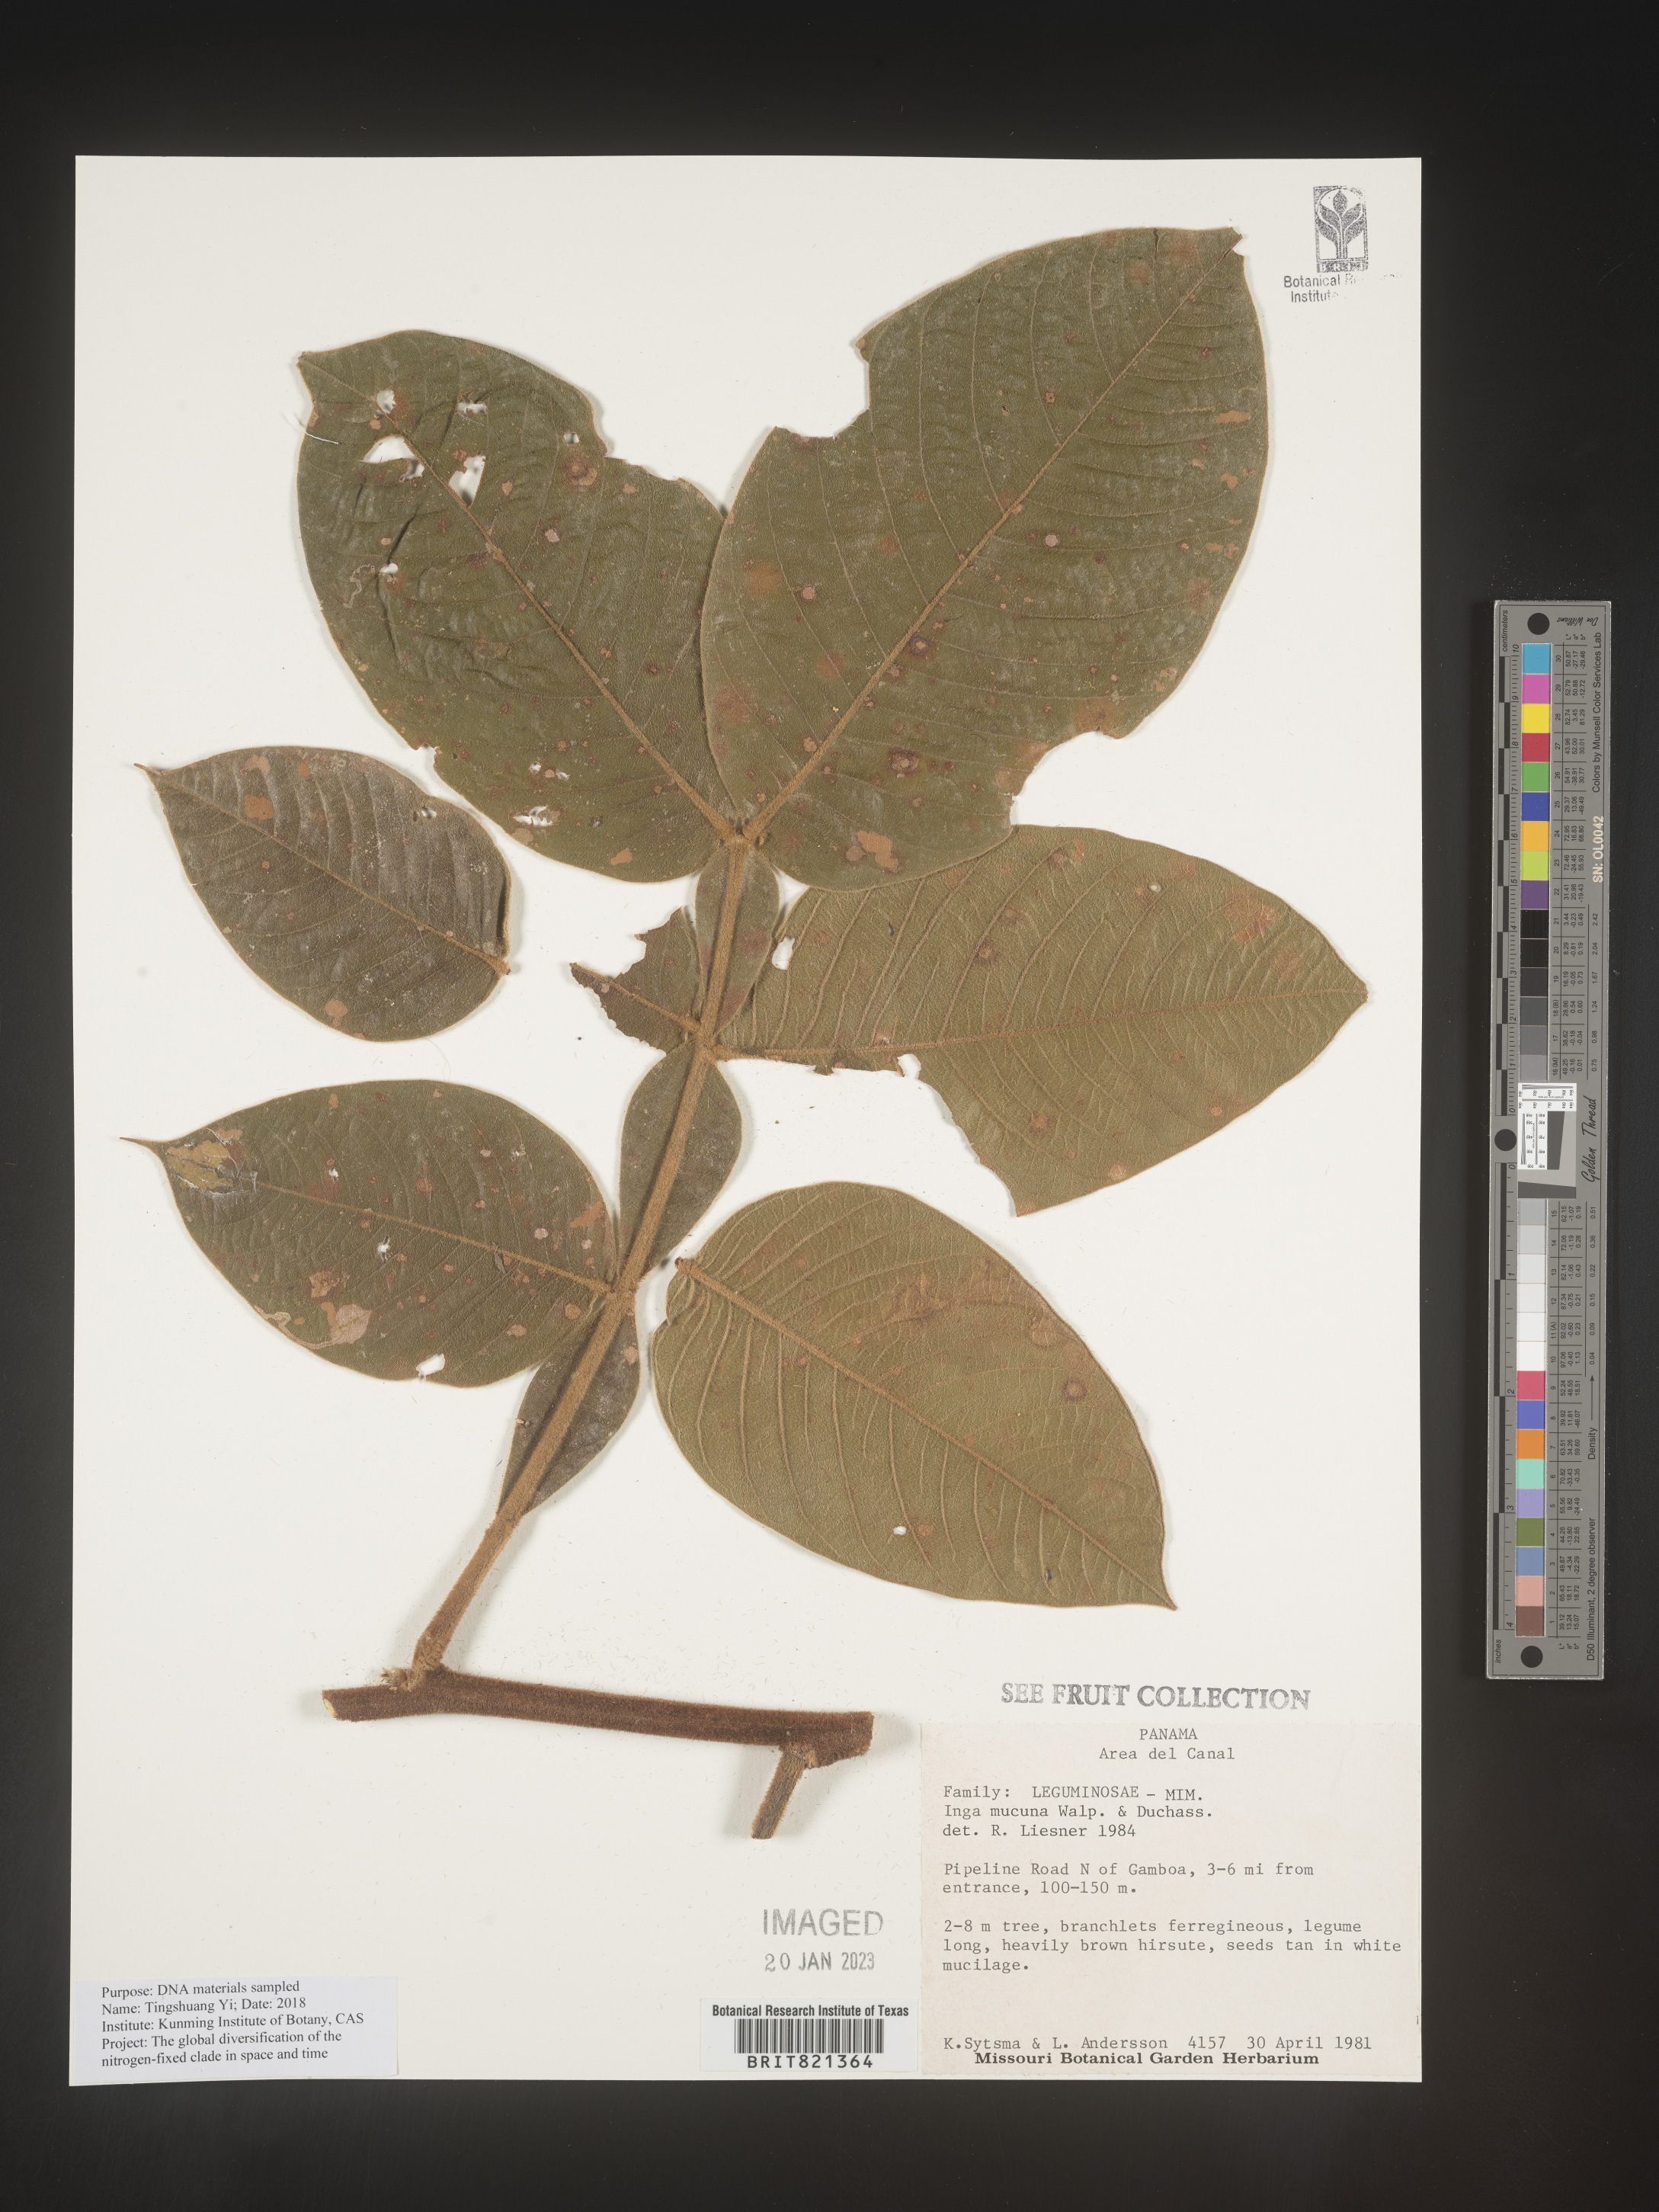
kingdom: Plantae
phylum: Tracheophyta
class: Magnoliopsida
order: Fabales
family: Fabaceae
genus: Inga
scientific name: Inga
